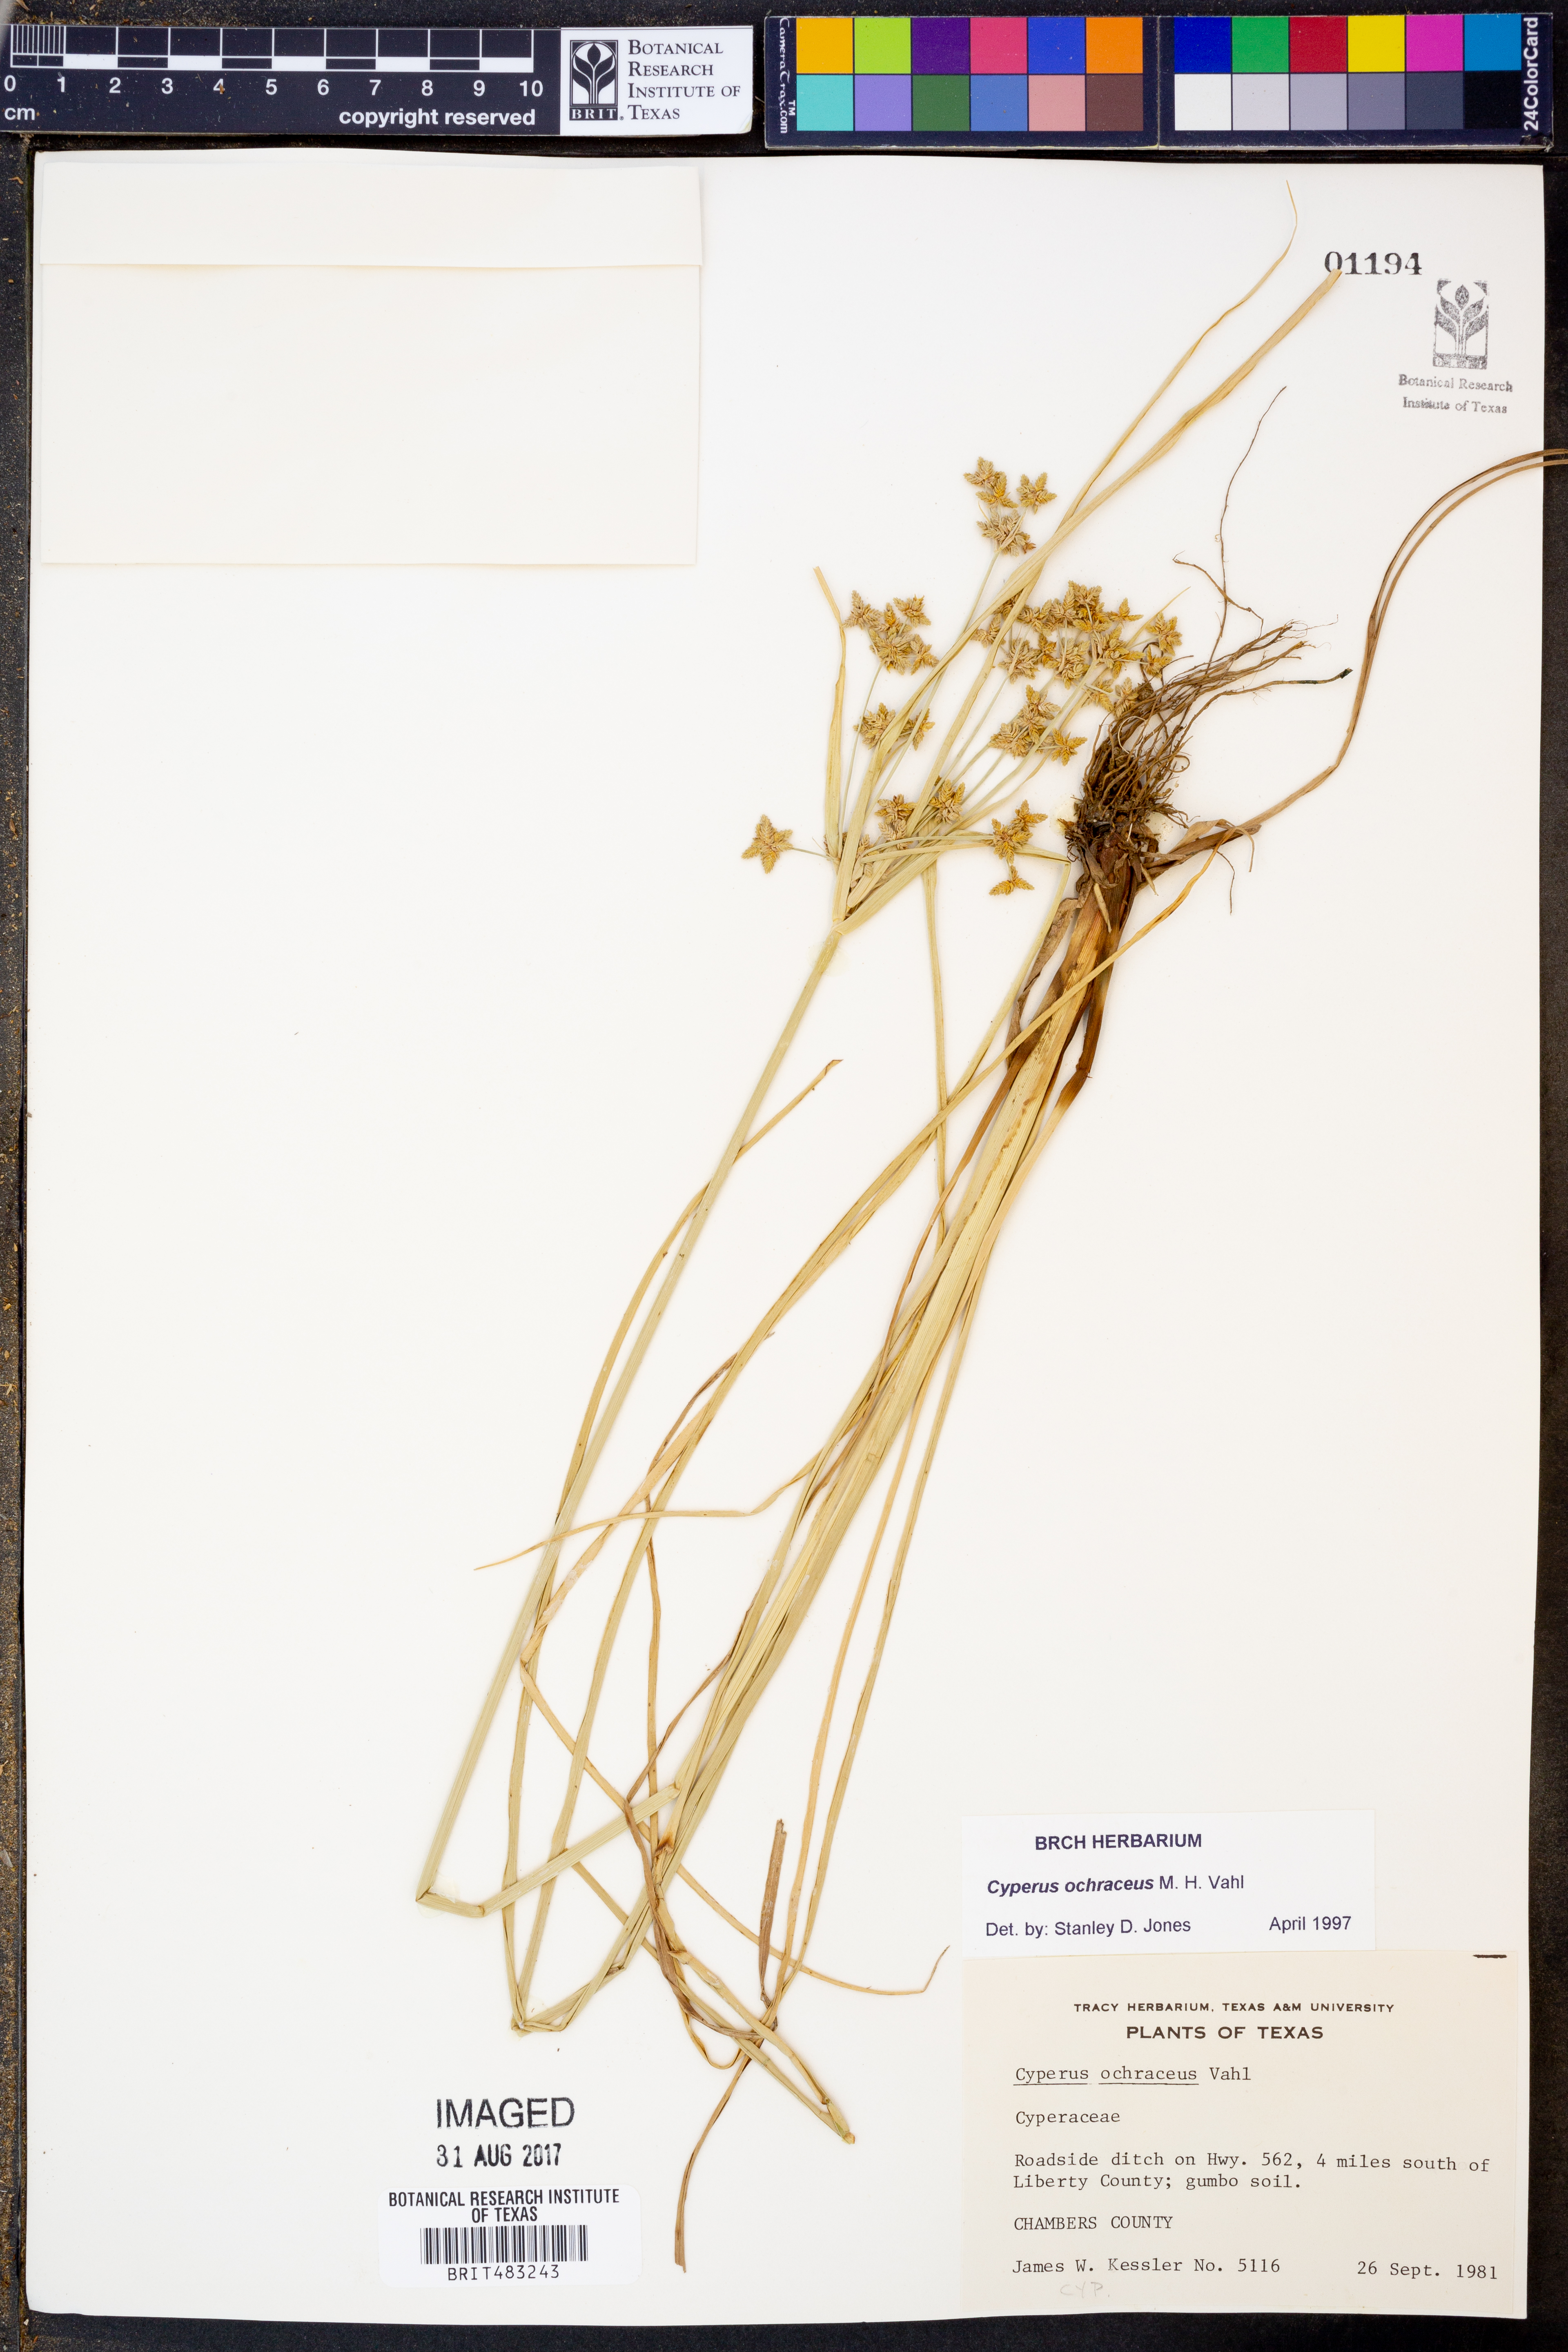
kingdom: Plantae
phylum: Tracheophyta
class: Liliopsida
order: Poales
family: Cyperaceae
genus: Cyperus
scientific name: Cyperus ochraceus
